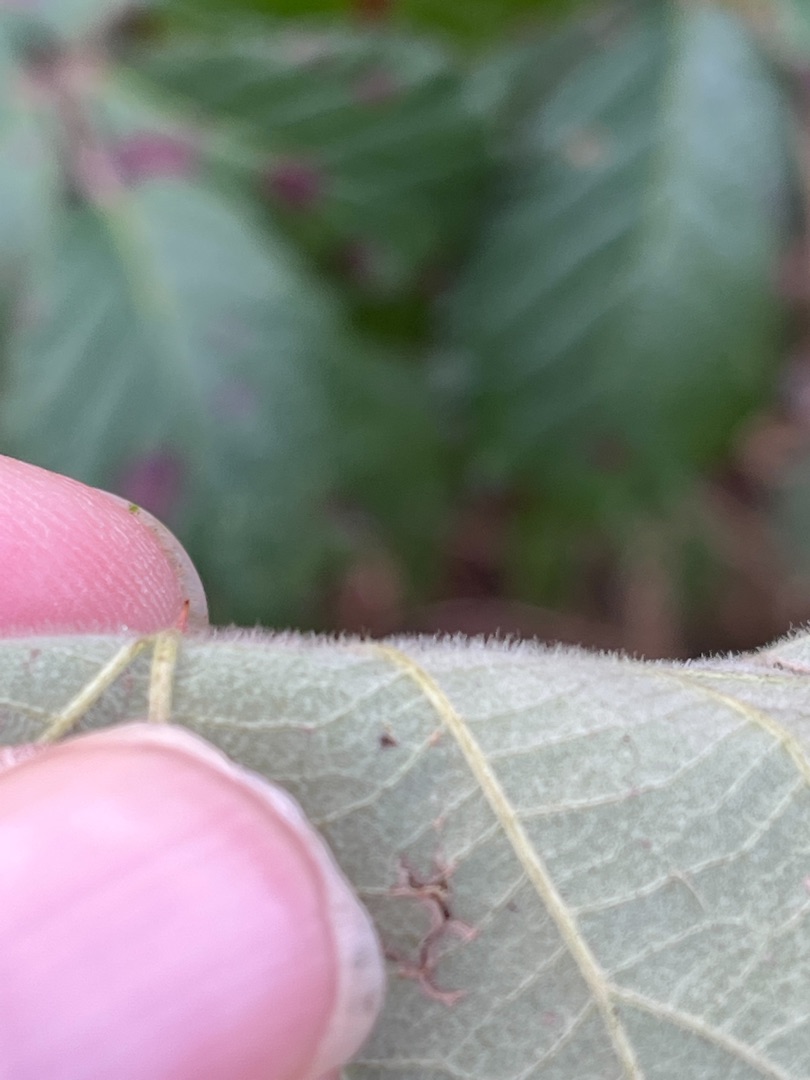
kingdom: Plantae
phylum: Tracheophyta
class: Magnoliopsida
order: Rosales
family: Rosaceae
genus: Rubus
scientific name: Rubus vestitus
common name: Rundbladet brombær
